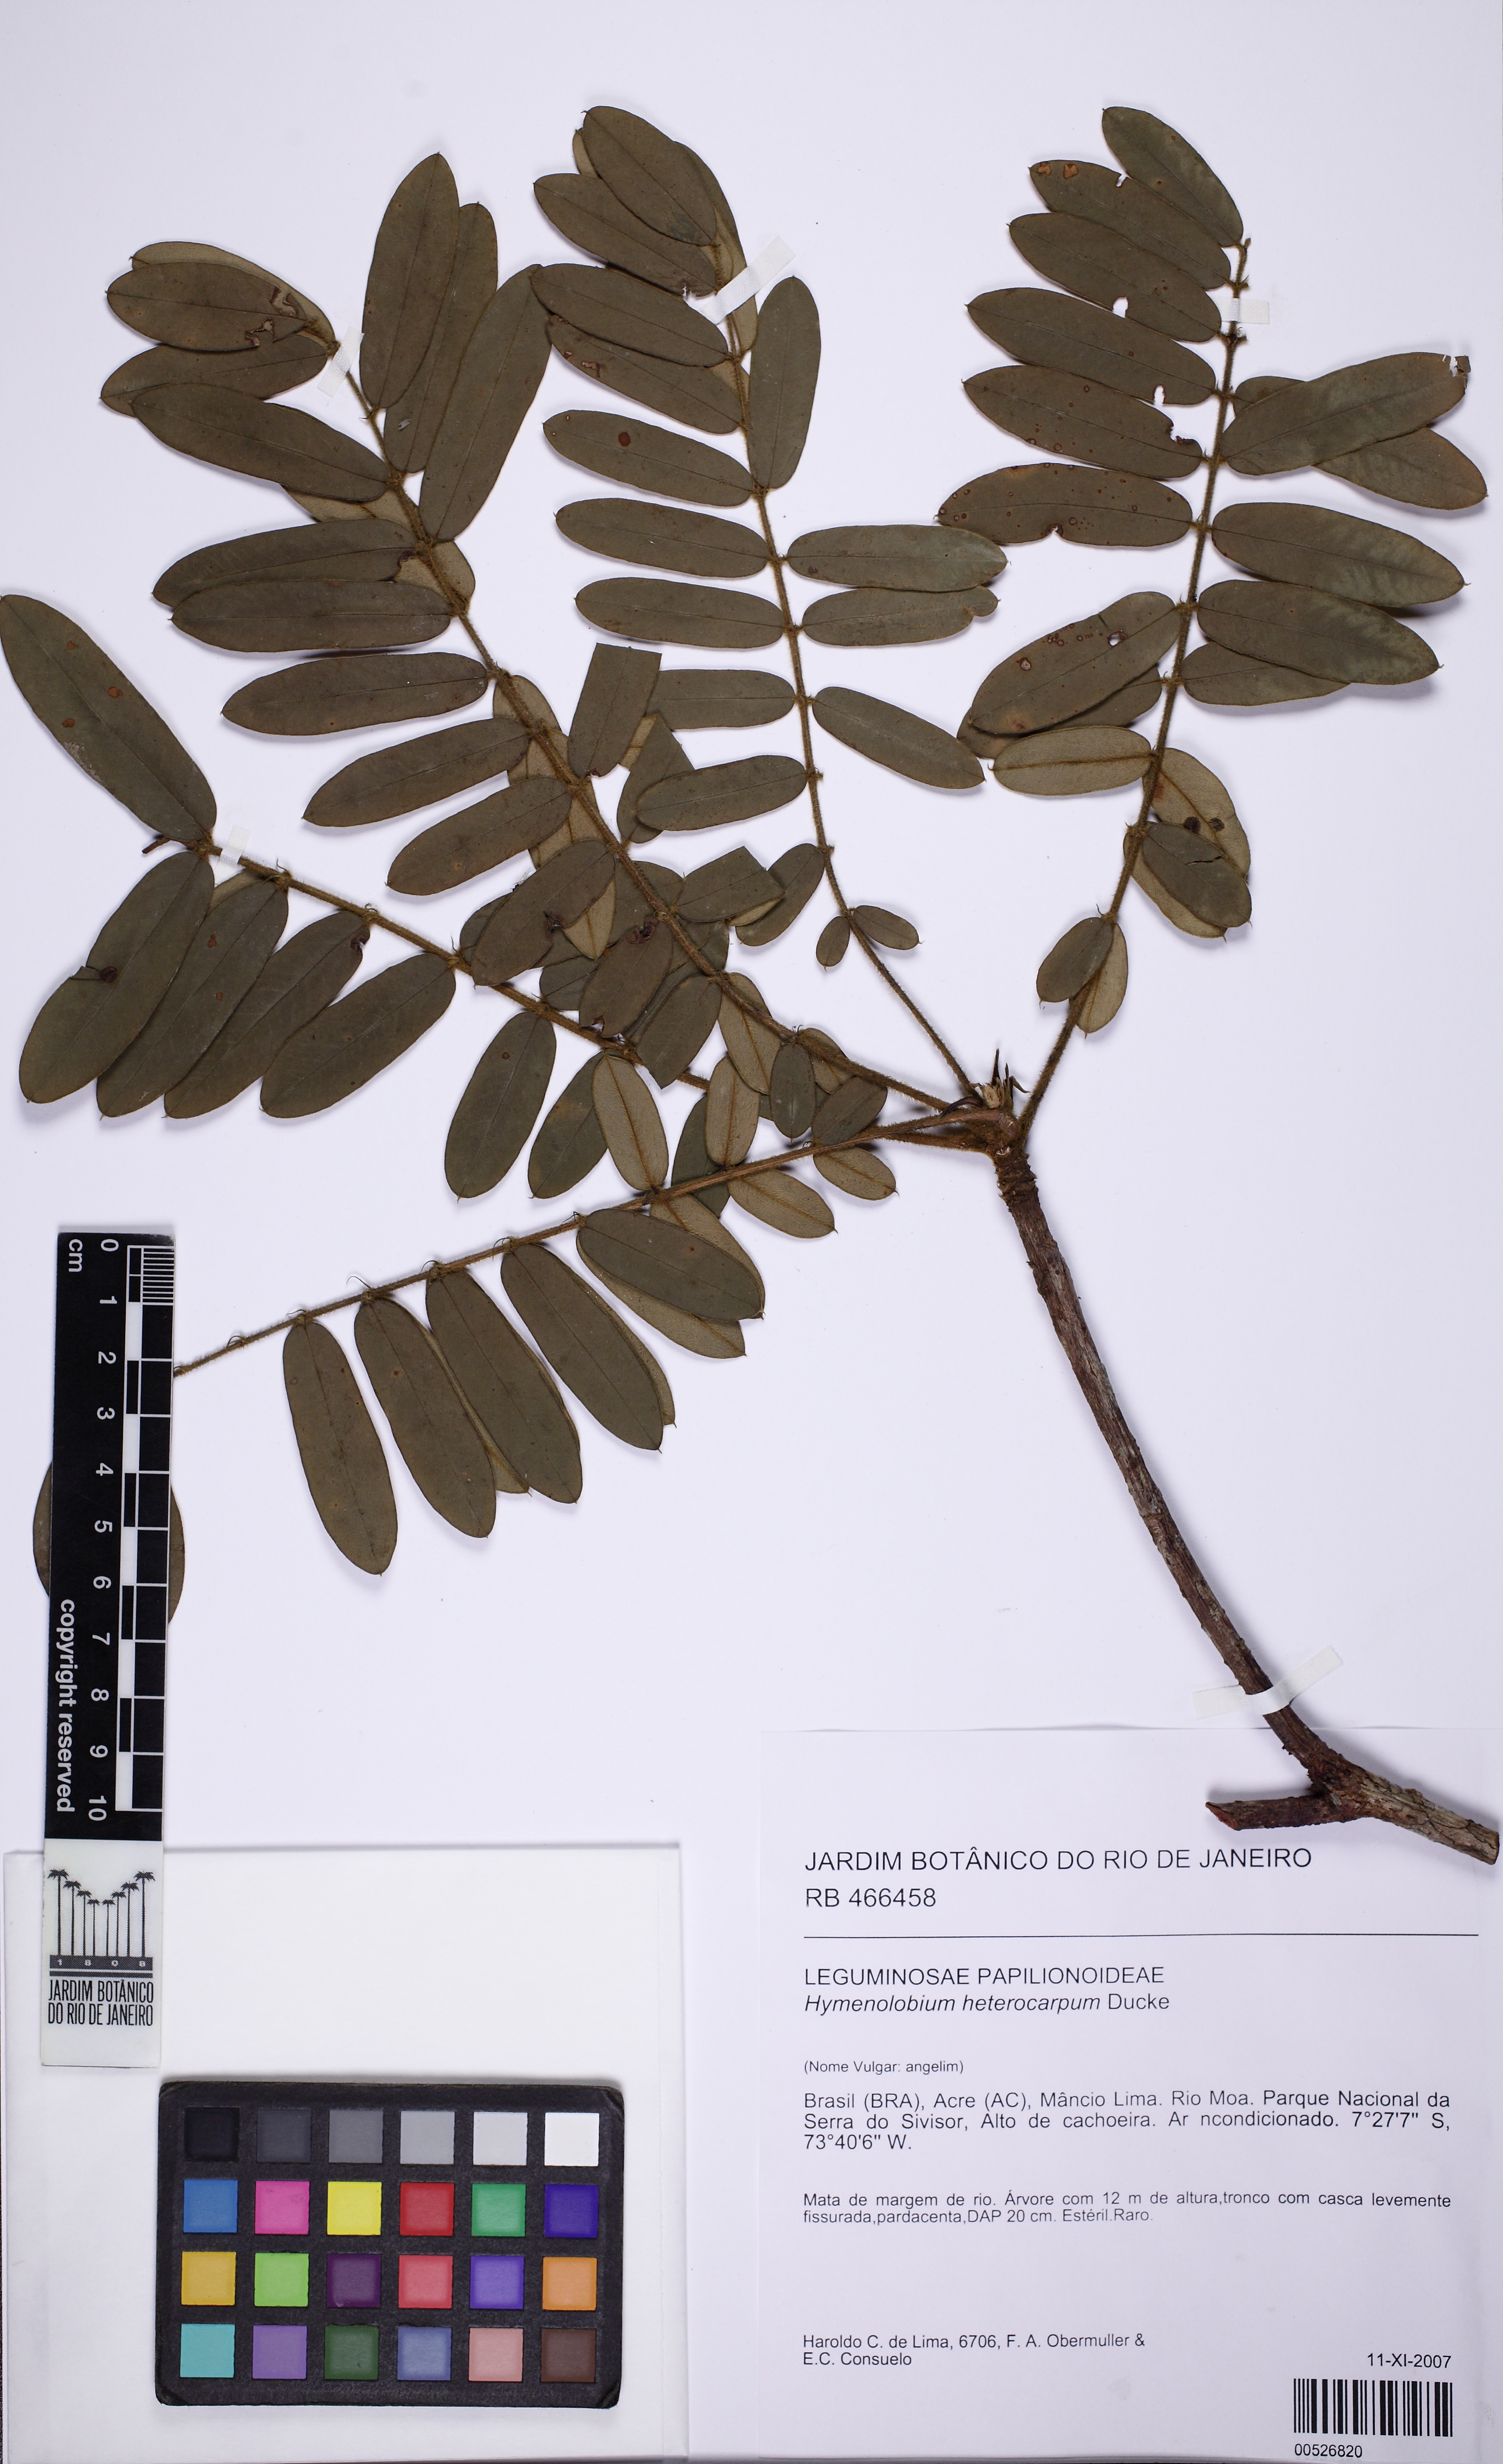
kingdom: Plantae
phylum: Tracheophyta
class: Magnoliopsida
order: Fabales
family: Fabaceae
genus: Hymenolobium
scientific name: Hymenolobium heterocarpum
